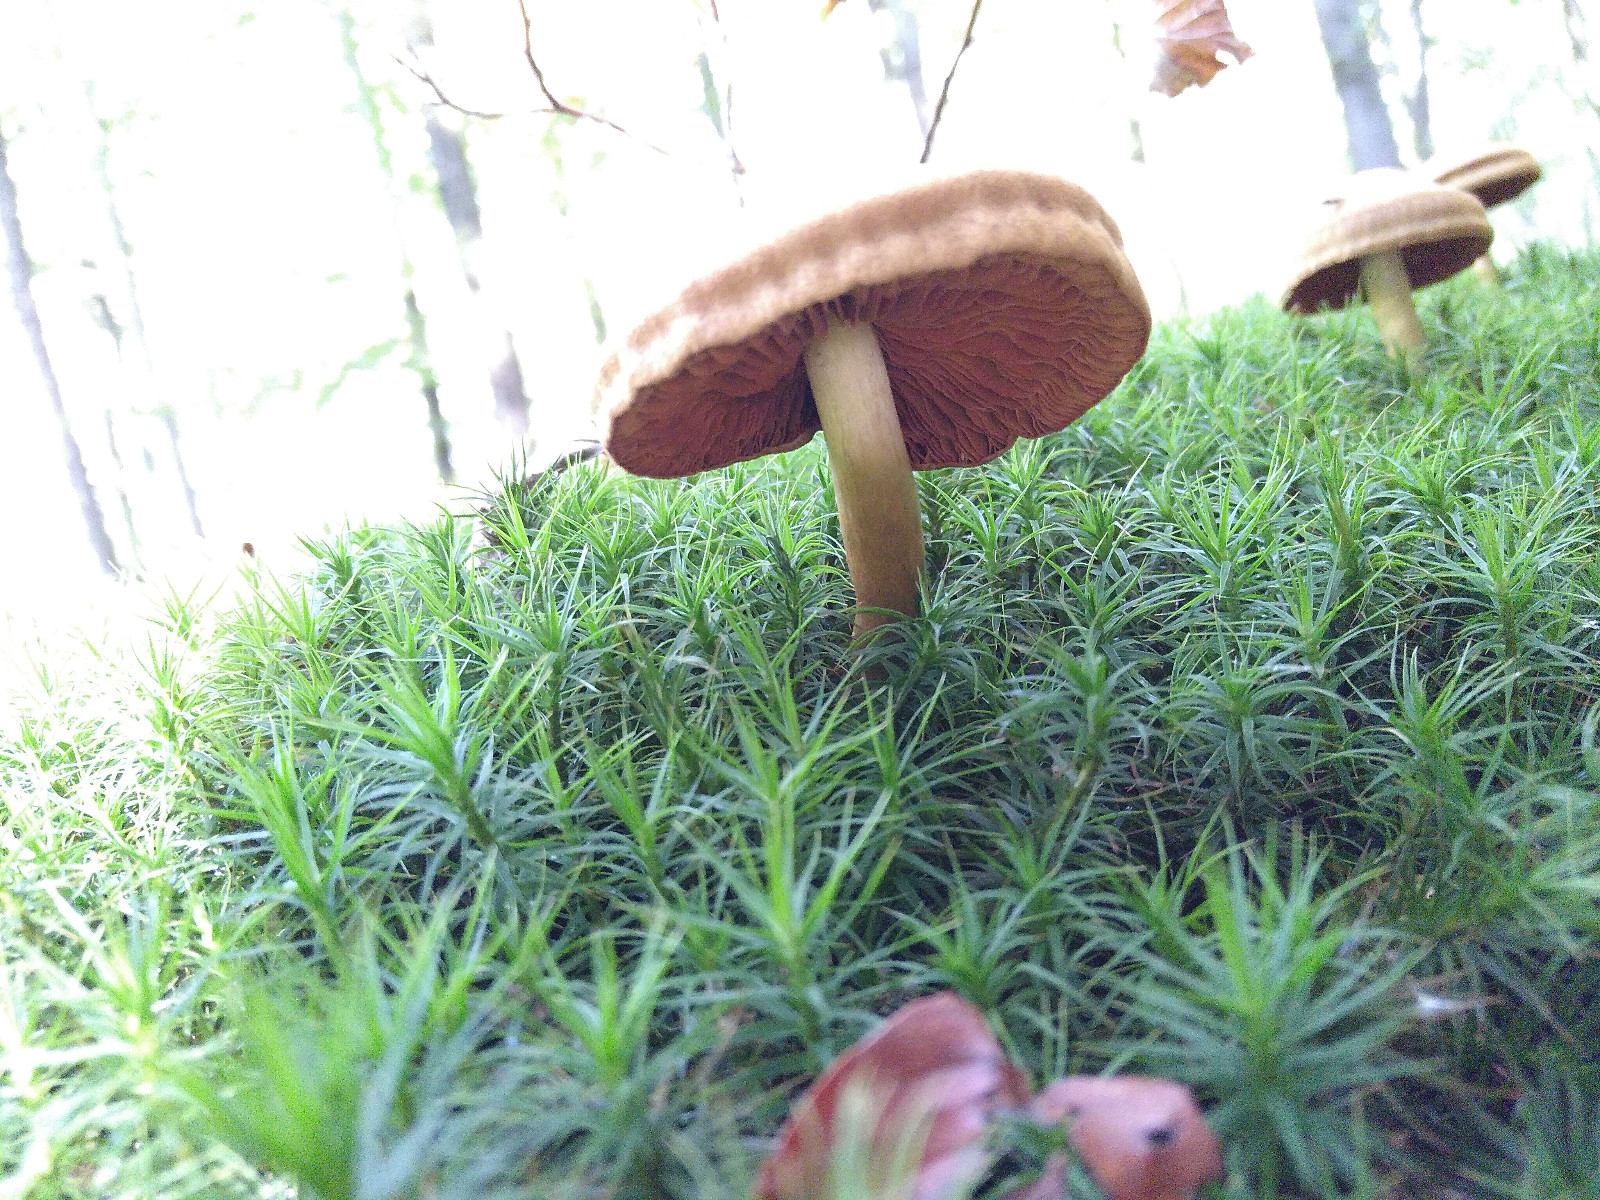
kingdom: Fungi
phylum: Basidiomycota
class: Agaricomycetes
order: Agaricales
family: Cortinariaceae
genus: Cortinarius
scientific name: Cortinarius
